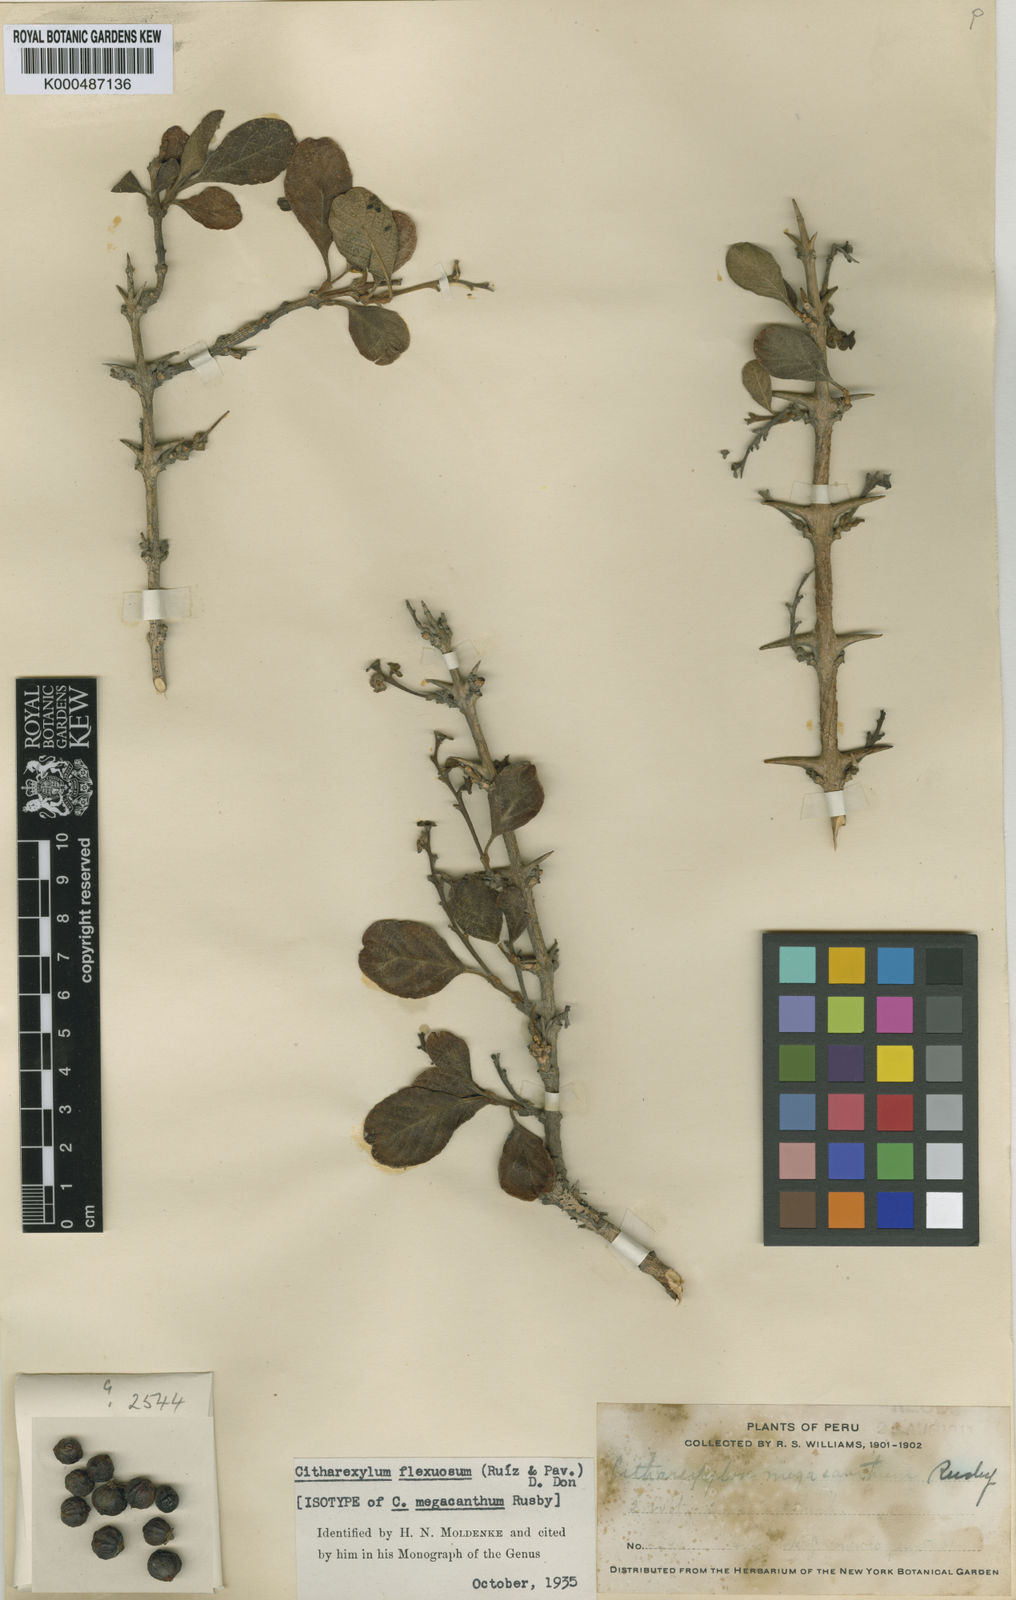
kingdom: Plantae
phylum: Tracheophyta
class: Magnoliopsida
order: Lamiales
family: Verbenaceae
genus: Citharexylum
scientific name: Citharexylum flexuosum
